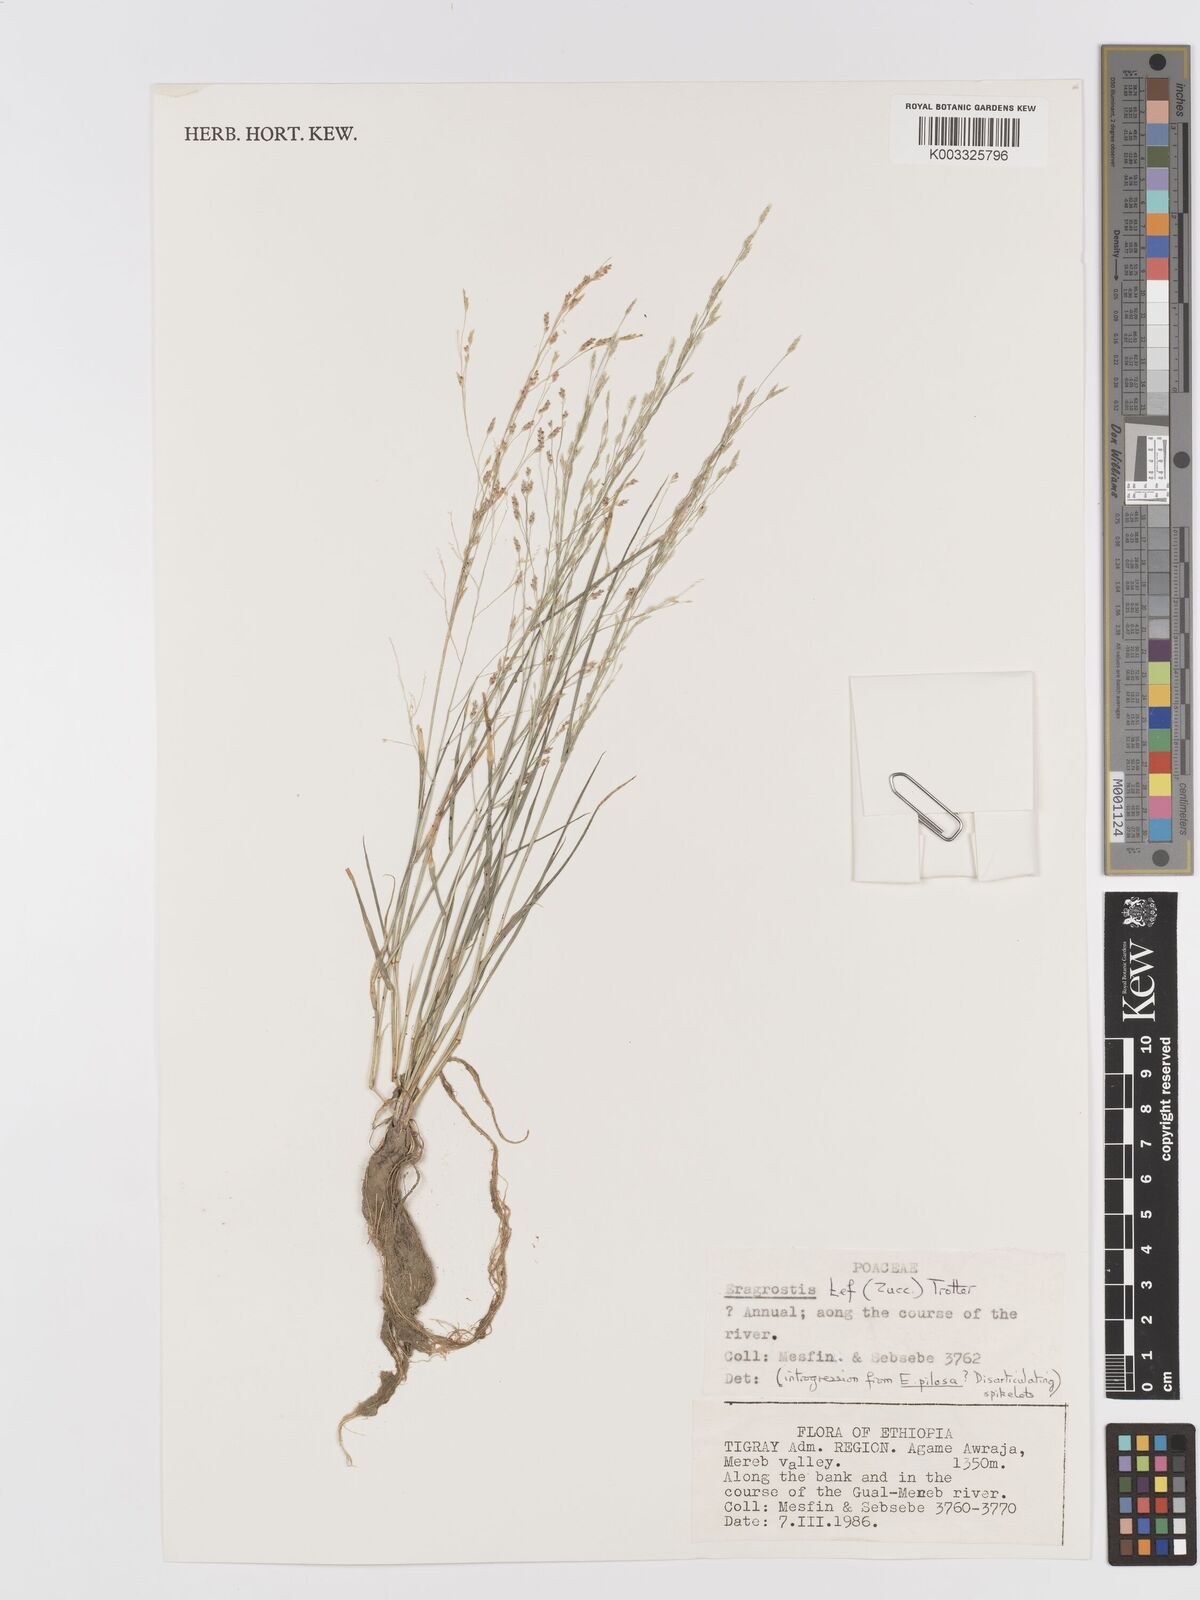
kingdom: Plantae
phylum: Tracheophyta
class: Liliopsida
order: Poales
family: Poaceae
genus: Eragrostis
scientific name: Eragrostis tef
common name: Teff
